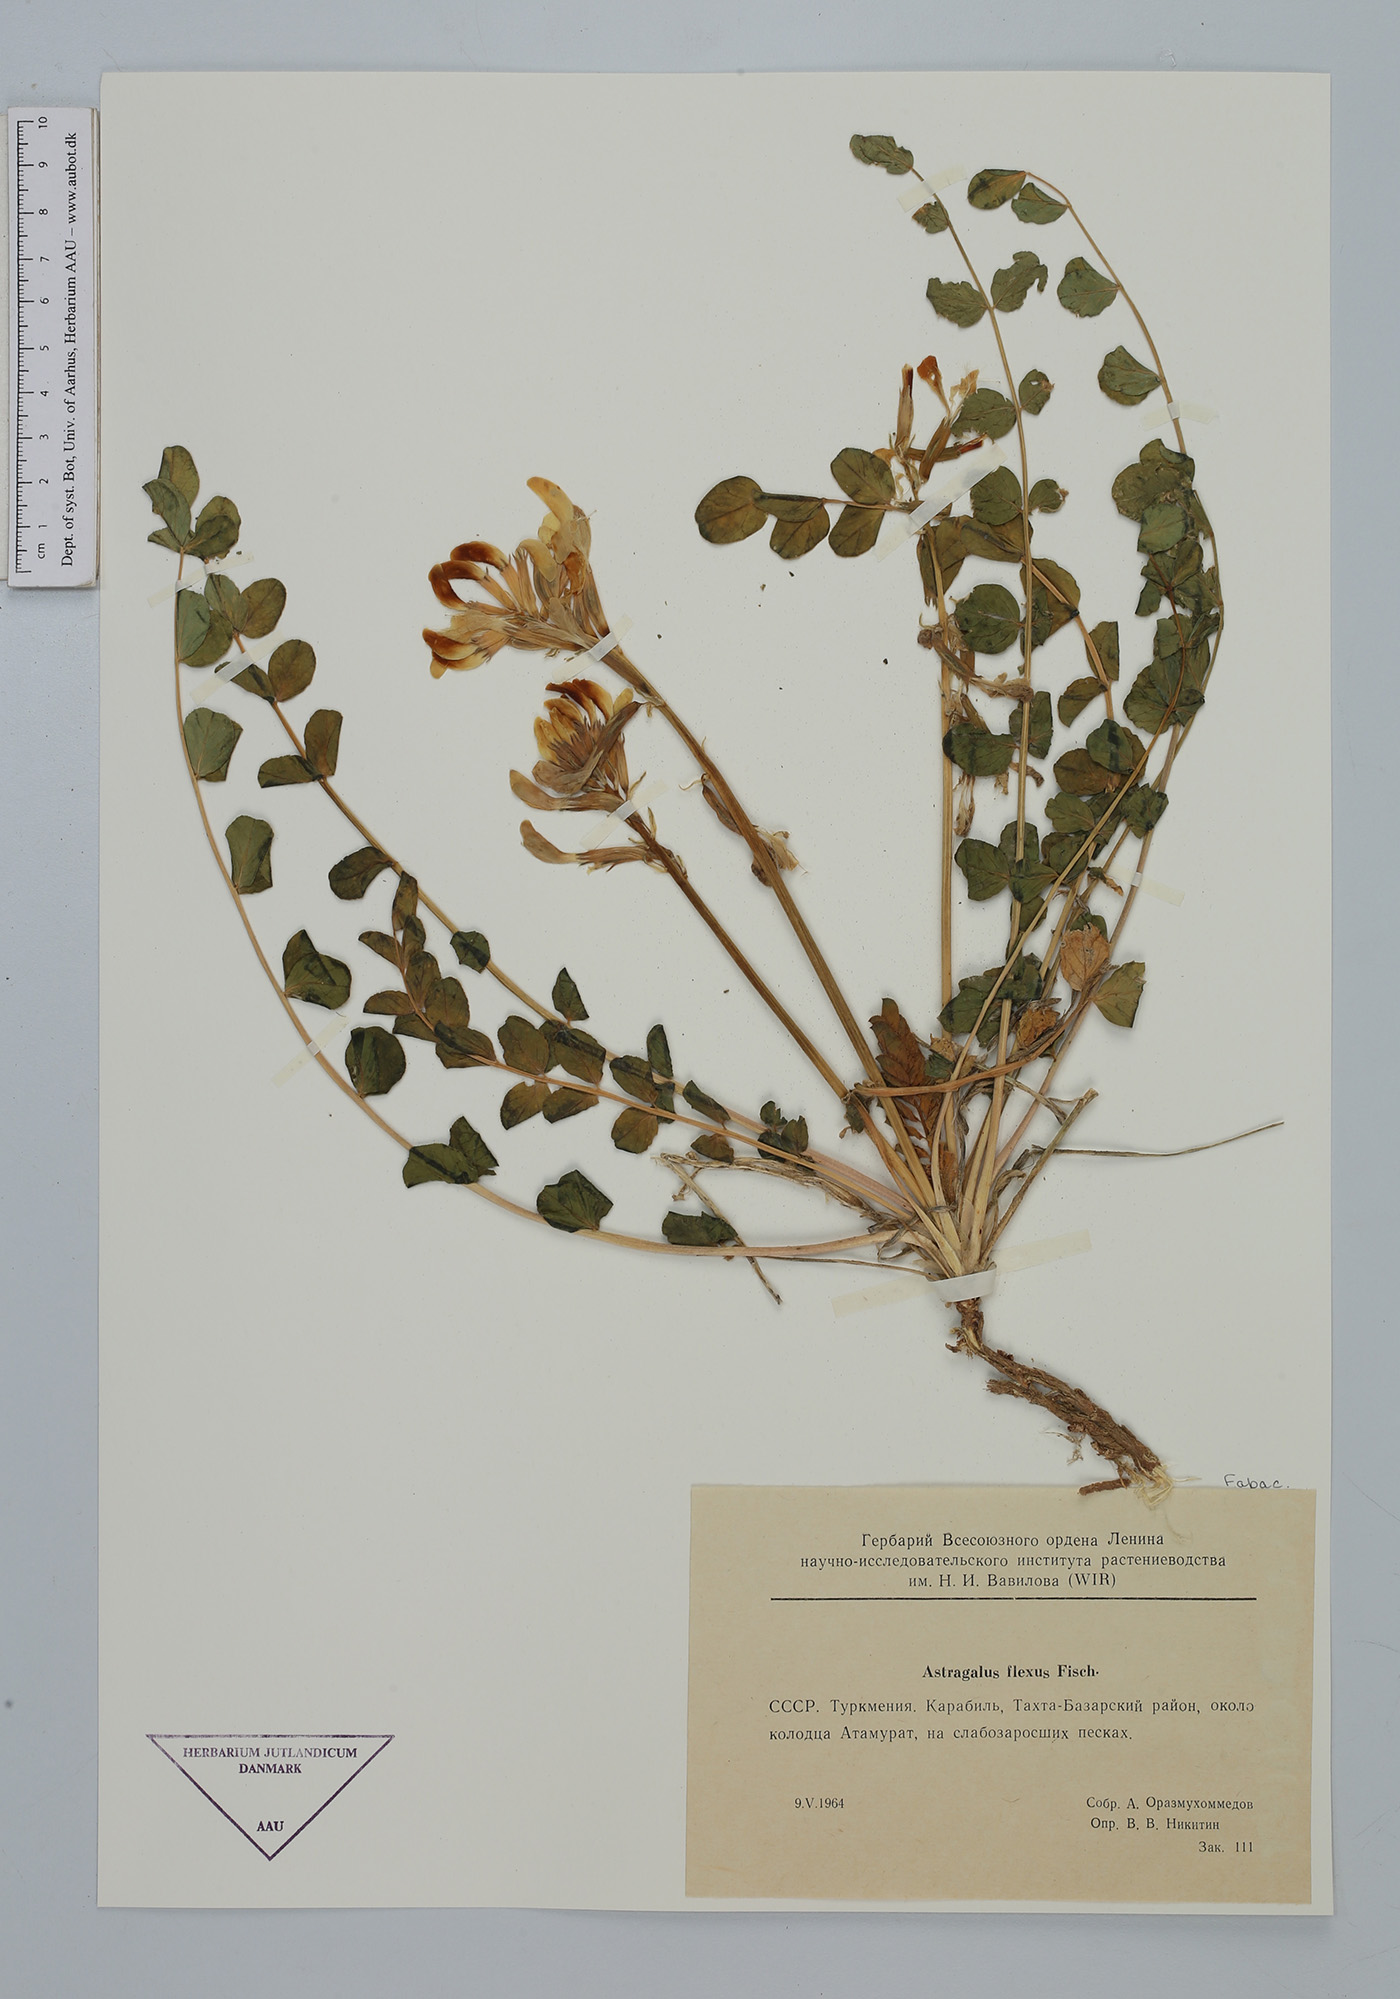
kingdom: Plantae
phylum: Tracheophyta
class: Magnoliopsida
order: Fabales
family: Fabaceae
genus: Astragalus
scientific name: Astragalus flexus
